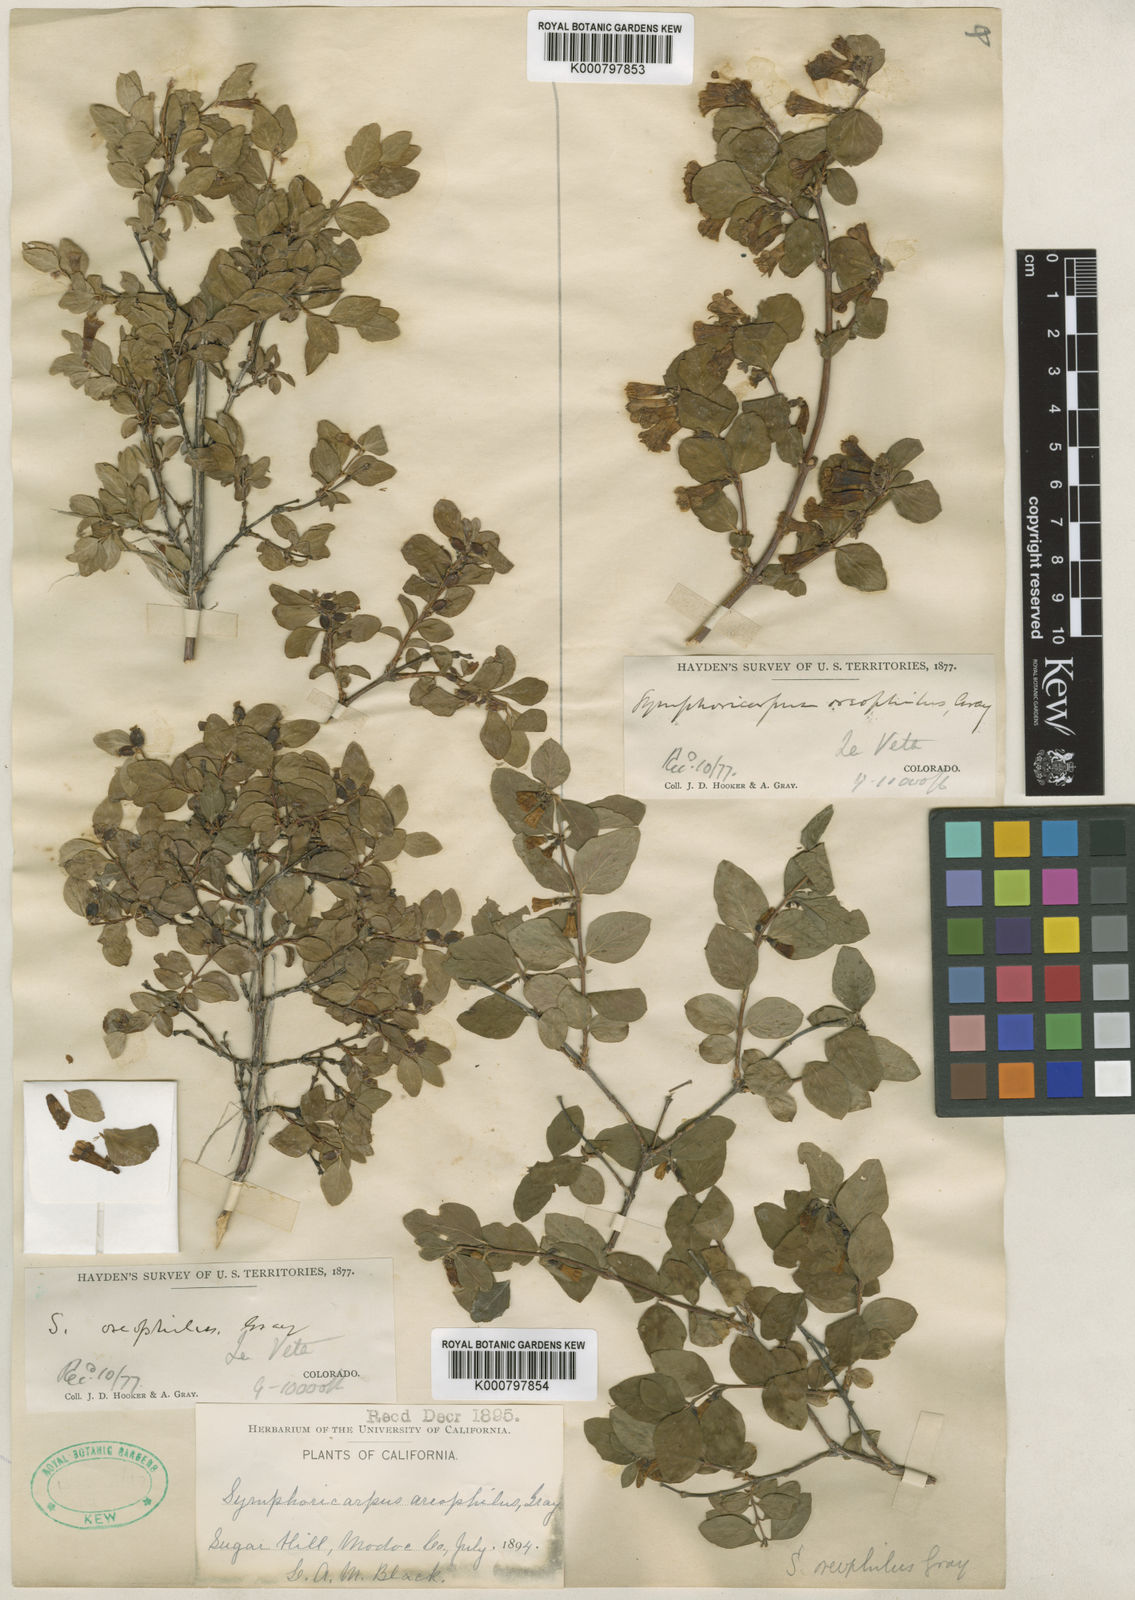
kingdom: Plantae
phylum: Tracheophyta
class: Magnoliopsida
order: Dipsacales
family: Caprifoliaceae
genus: Symphoricarpos
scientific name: Symphoricarpos oreophilus
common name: Mountain snowberry
